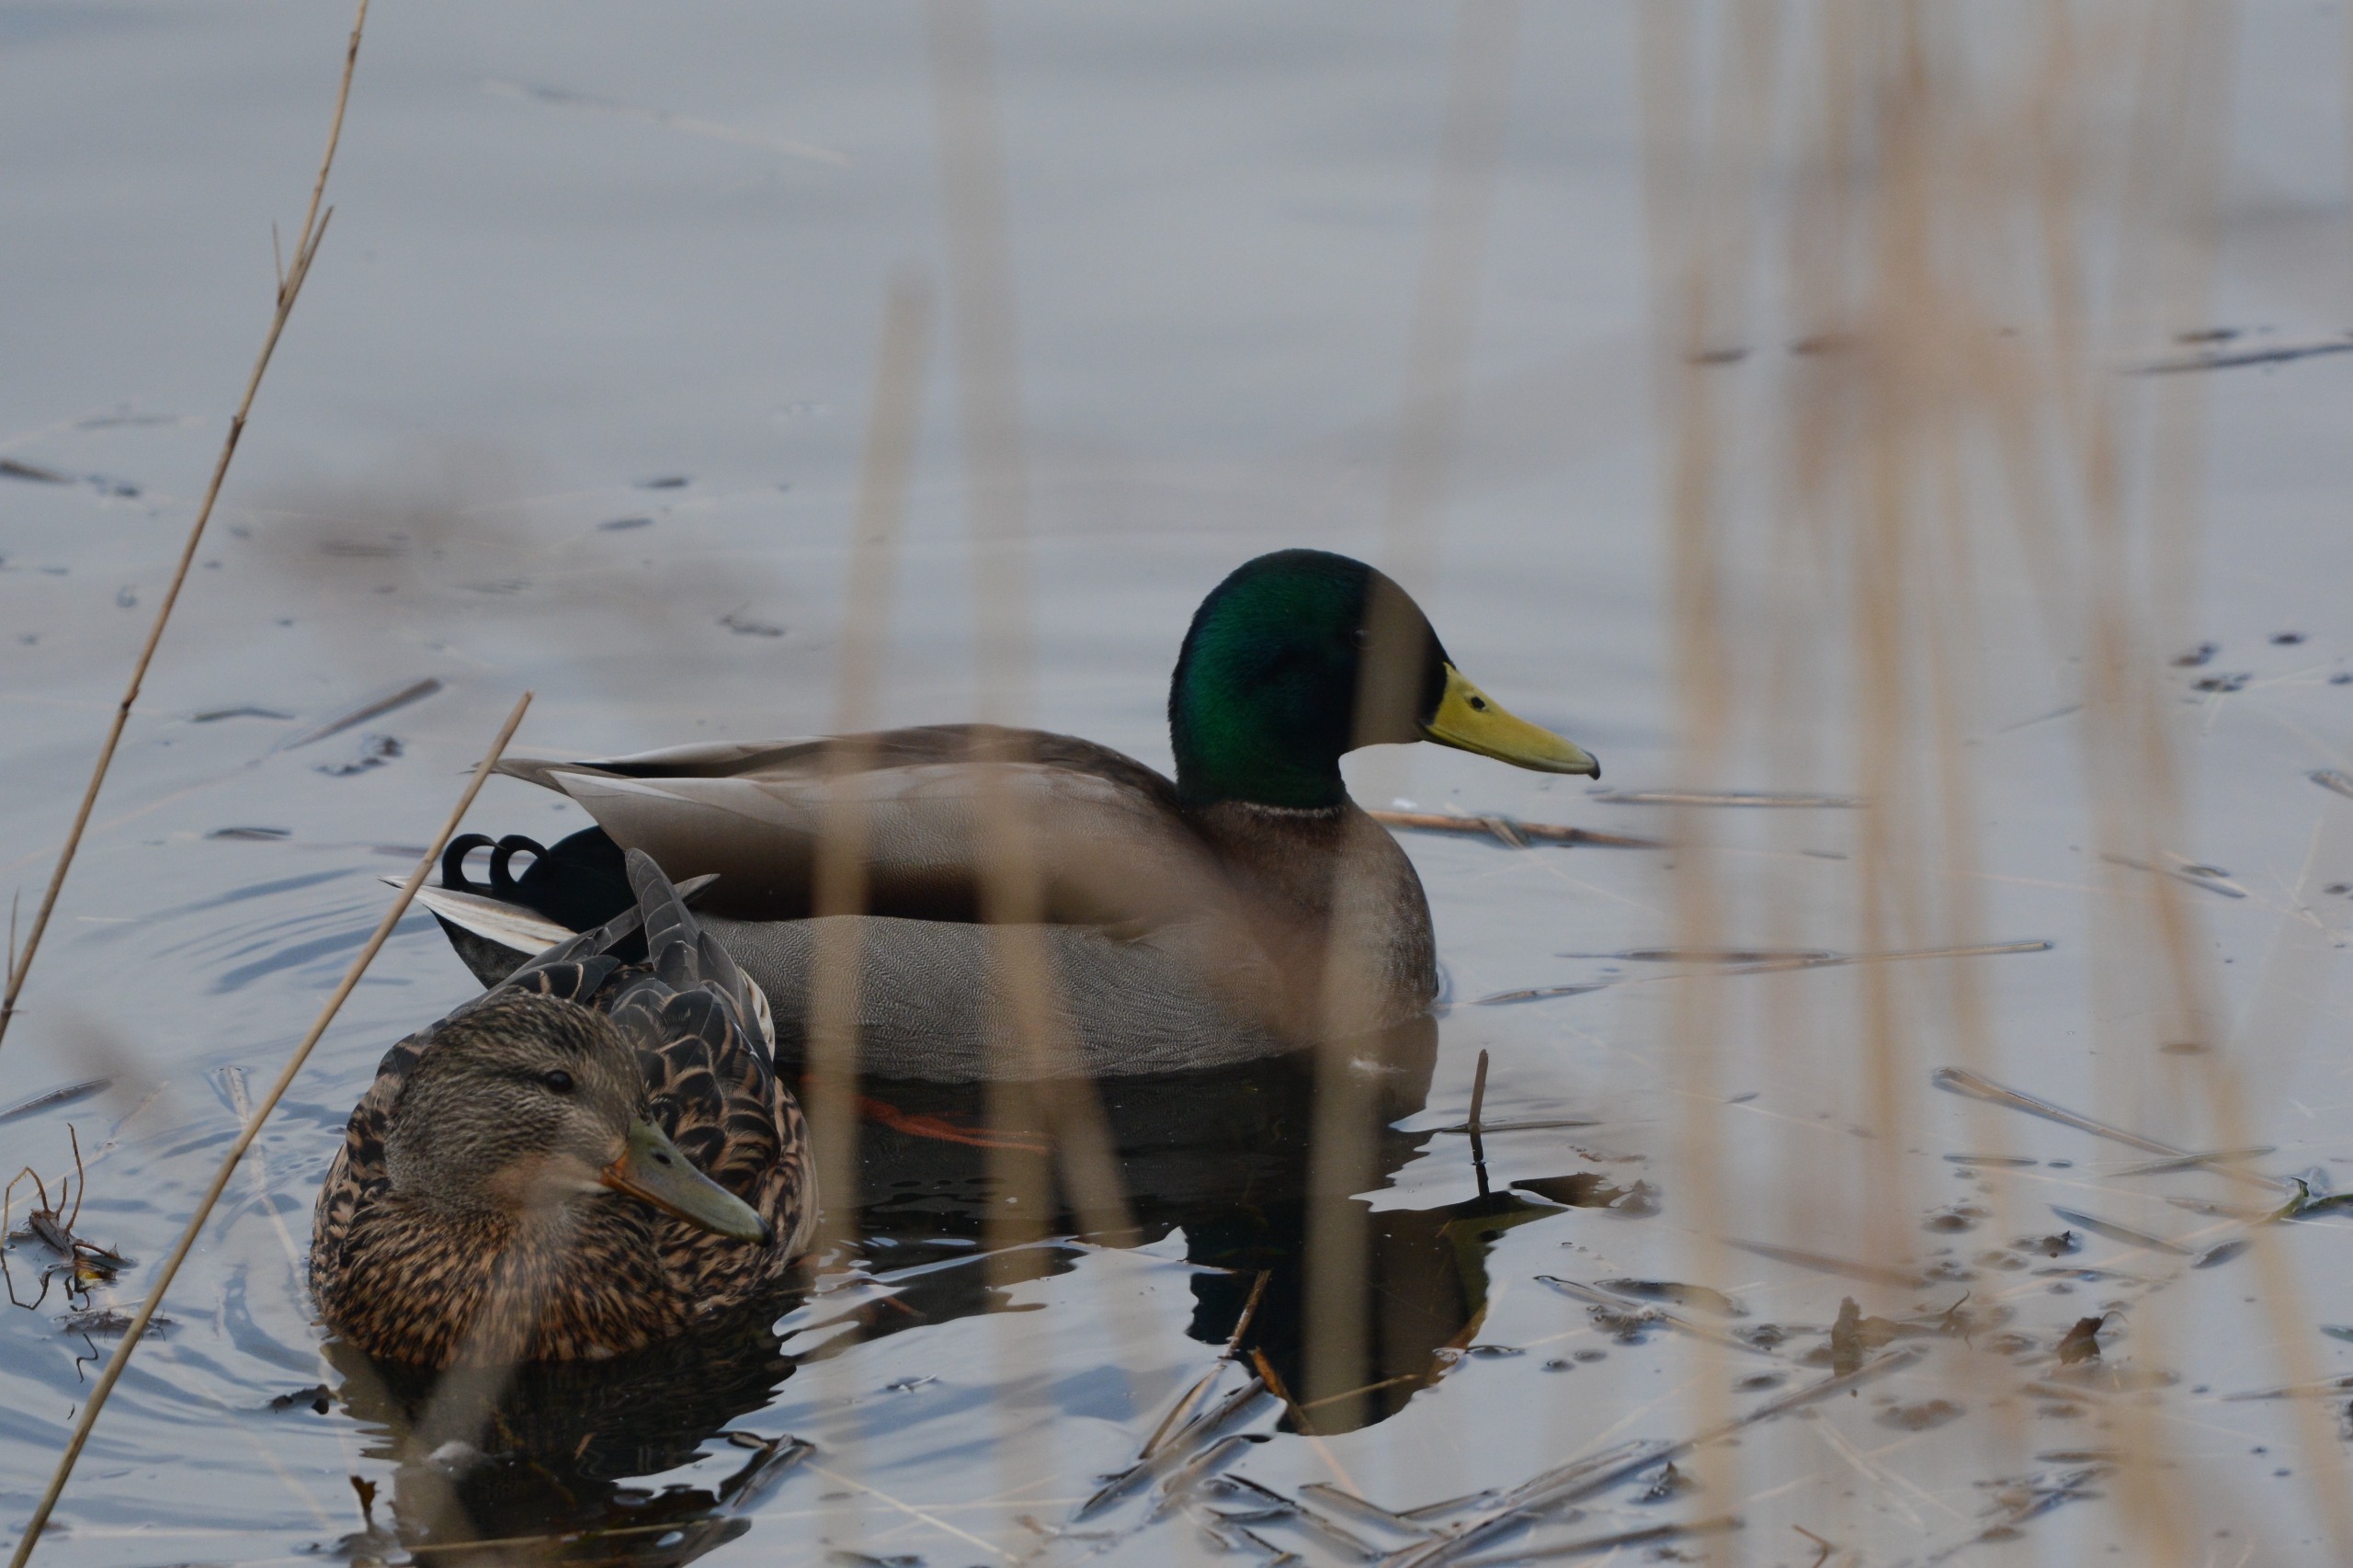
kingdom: Animalia
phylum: Chordata
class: Aves
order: Anseriformes
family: Anatidae
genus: Anas
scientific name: Anas platyrhynchos
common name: Gråand
